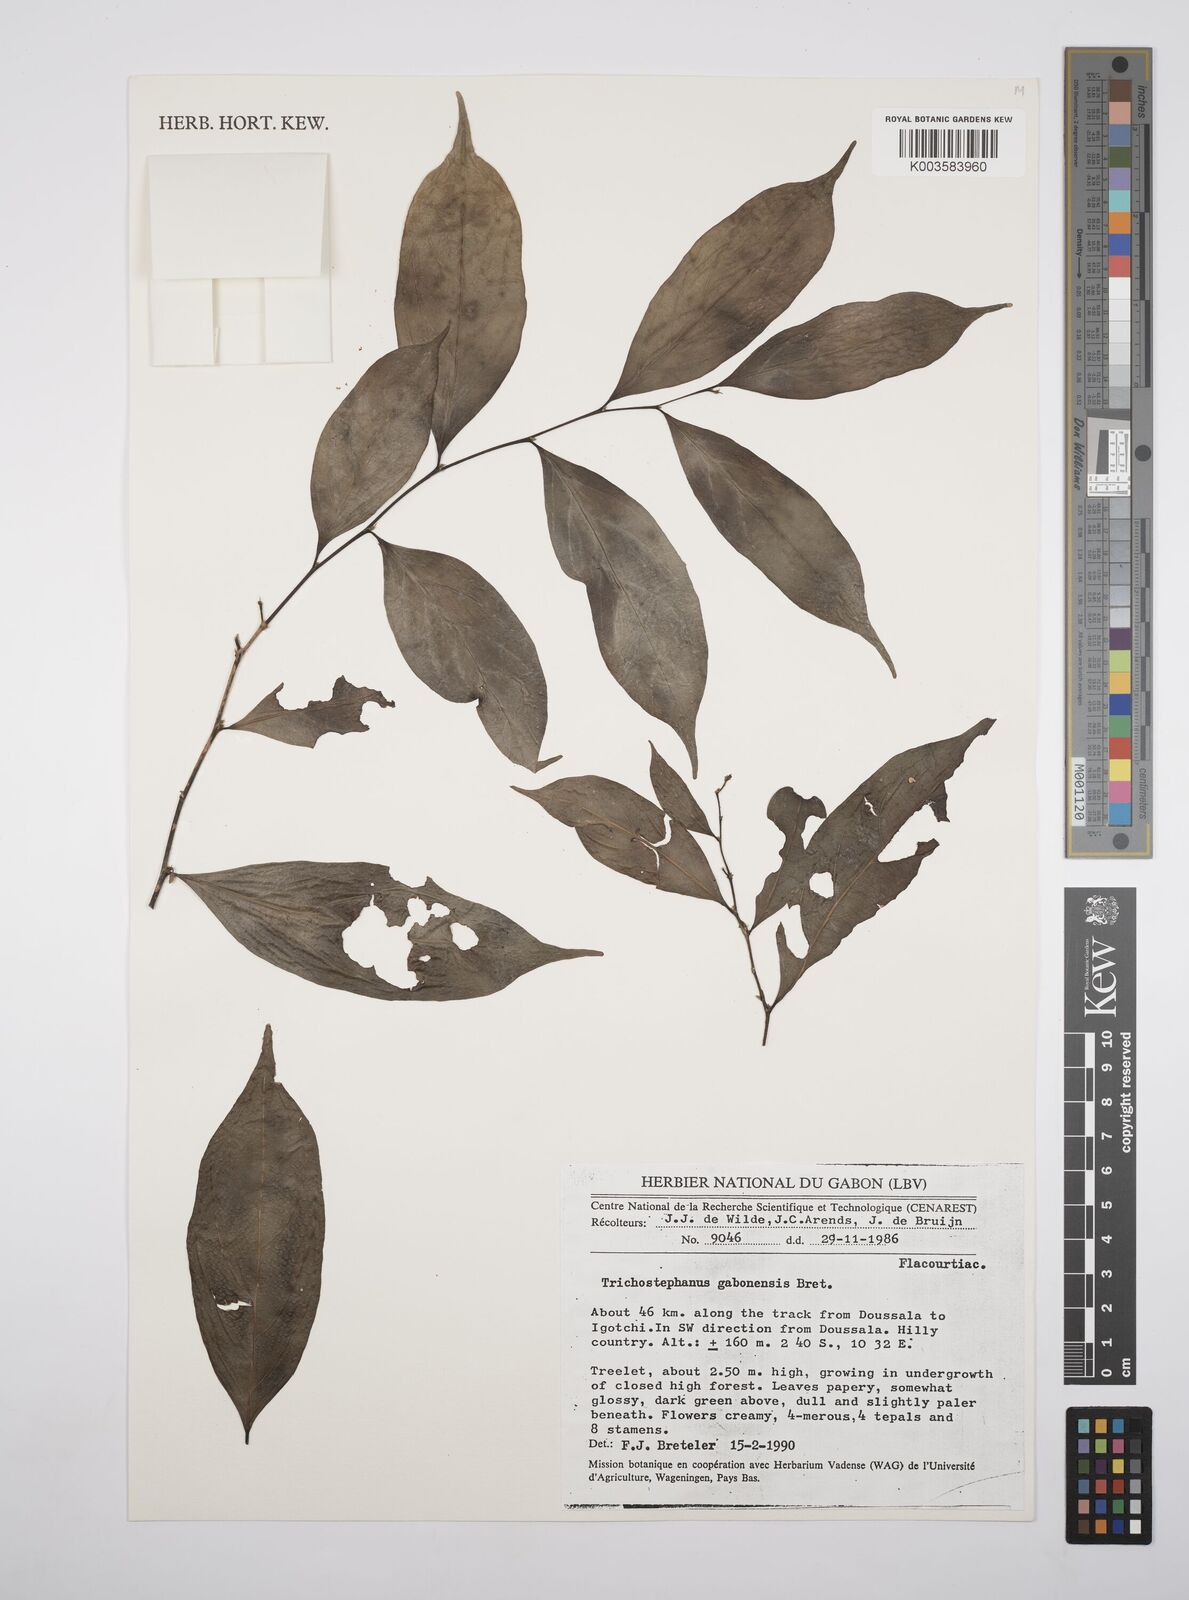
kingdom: Plantae
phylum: Tracheophyta
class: Magnoliopsida
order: Malpighiales
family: Salicaceae
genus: Trichostephanus
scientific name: Trichostephanus gabonensis
